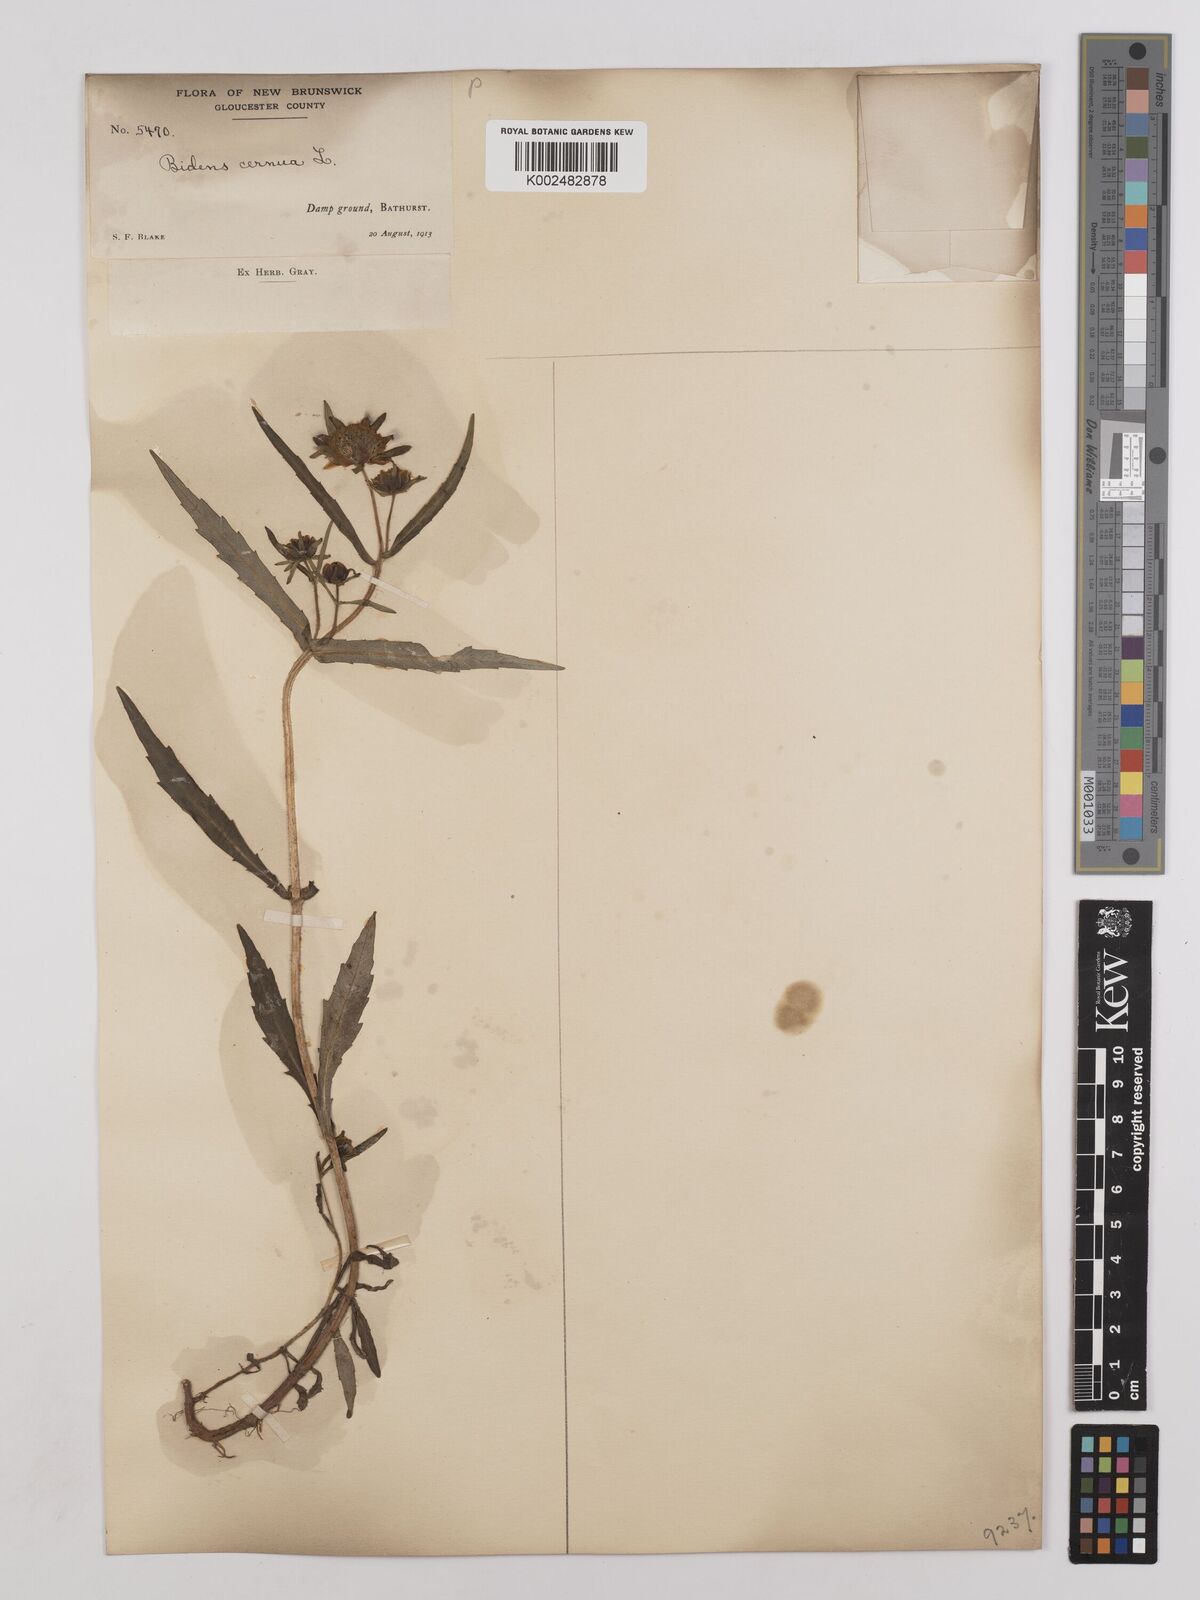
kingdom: Plantae
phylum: Tracheophyta
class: Magnoliopsida
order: Asterales
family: Asteraceae
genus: Bidens
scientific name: Bidens
